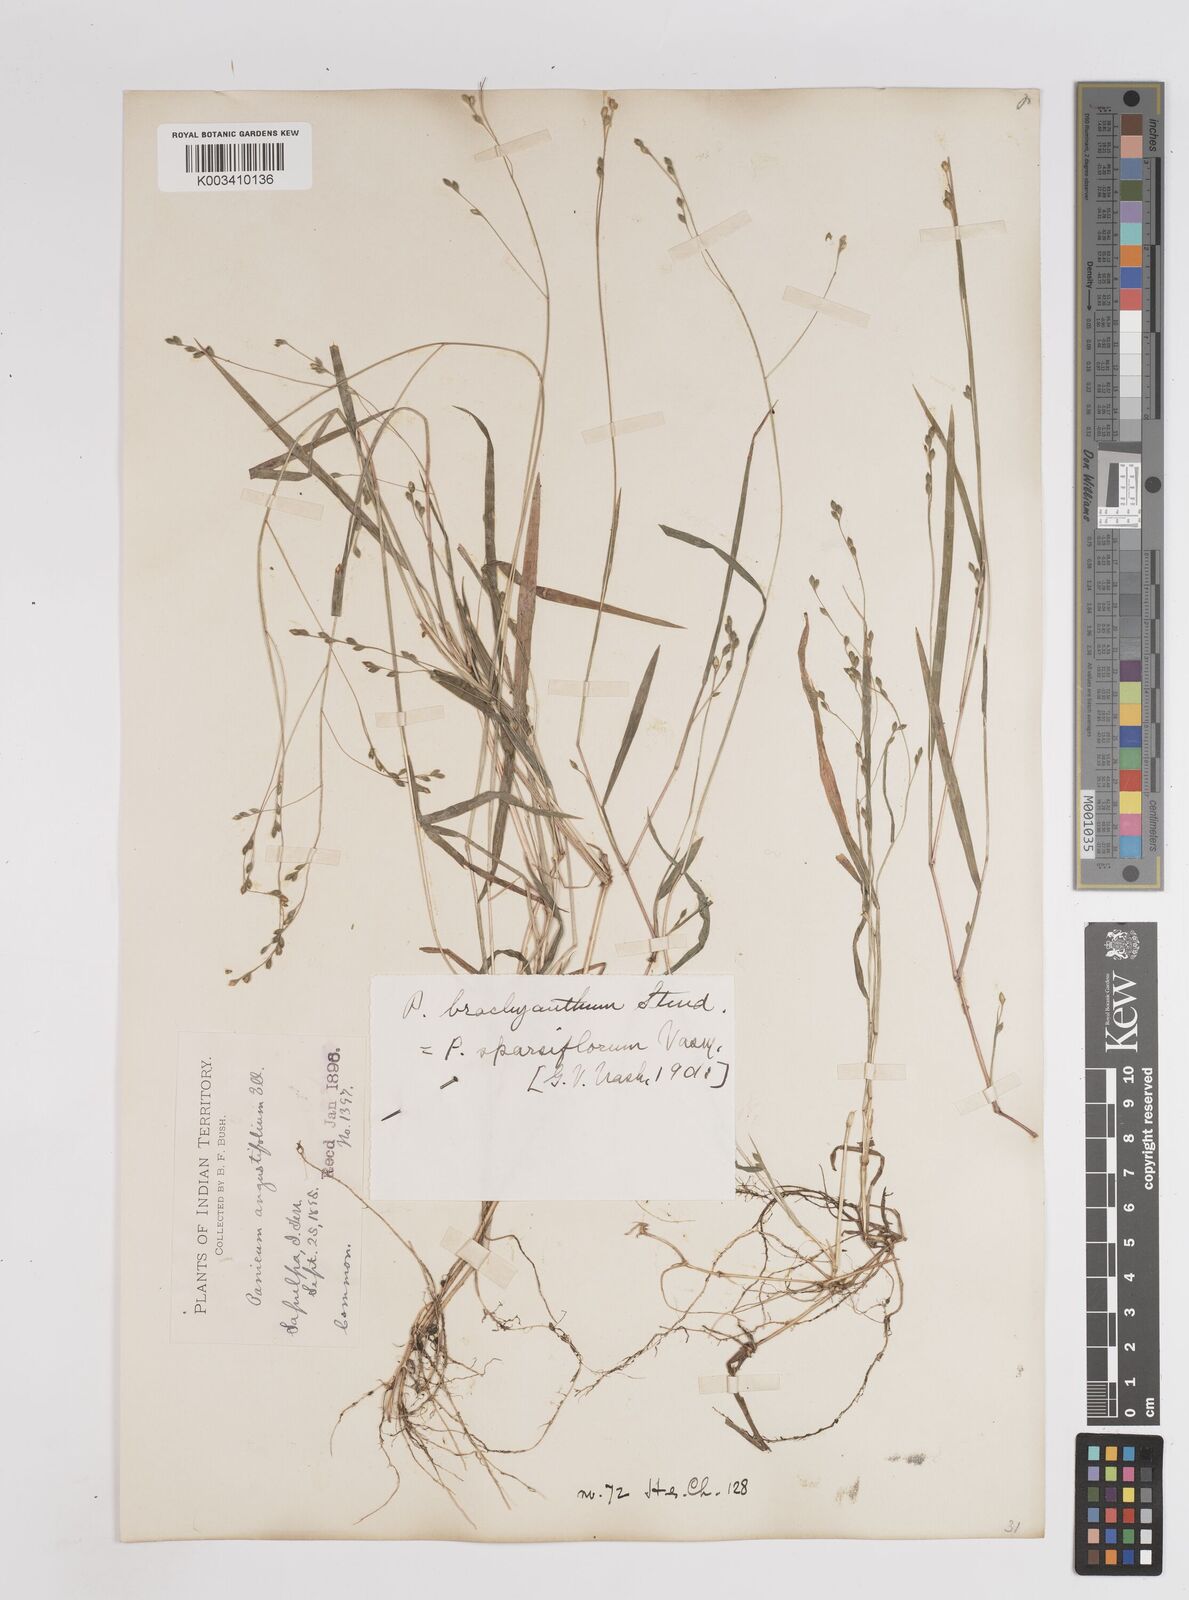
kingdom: Plantae
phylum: Tracheophyta
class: Liliopsida
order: Poales
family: Poaceae
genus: Kellochloa
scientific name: Kellochloa brachyantha
